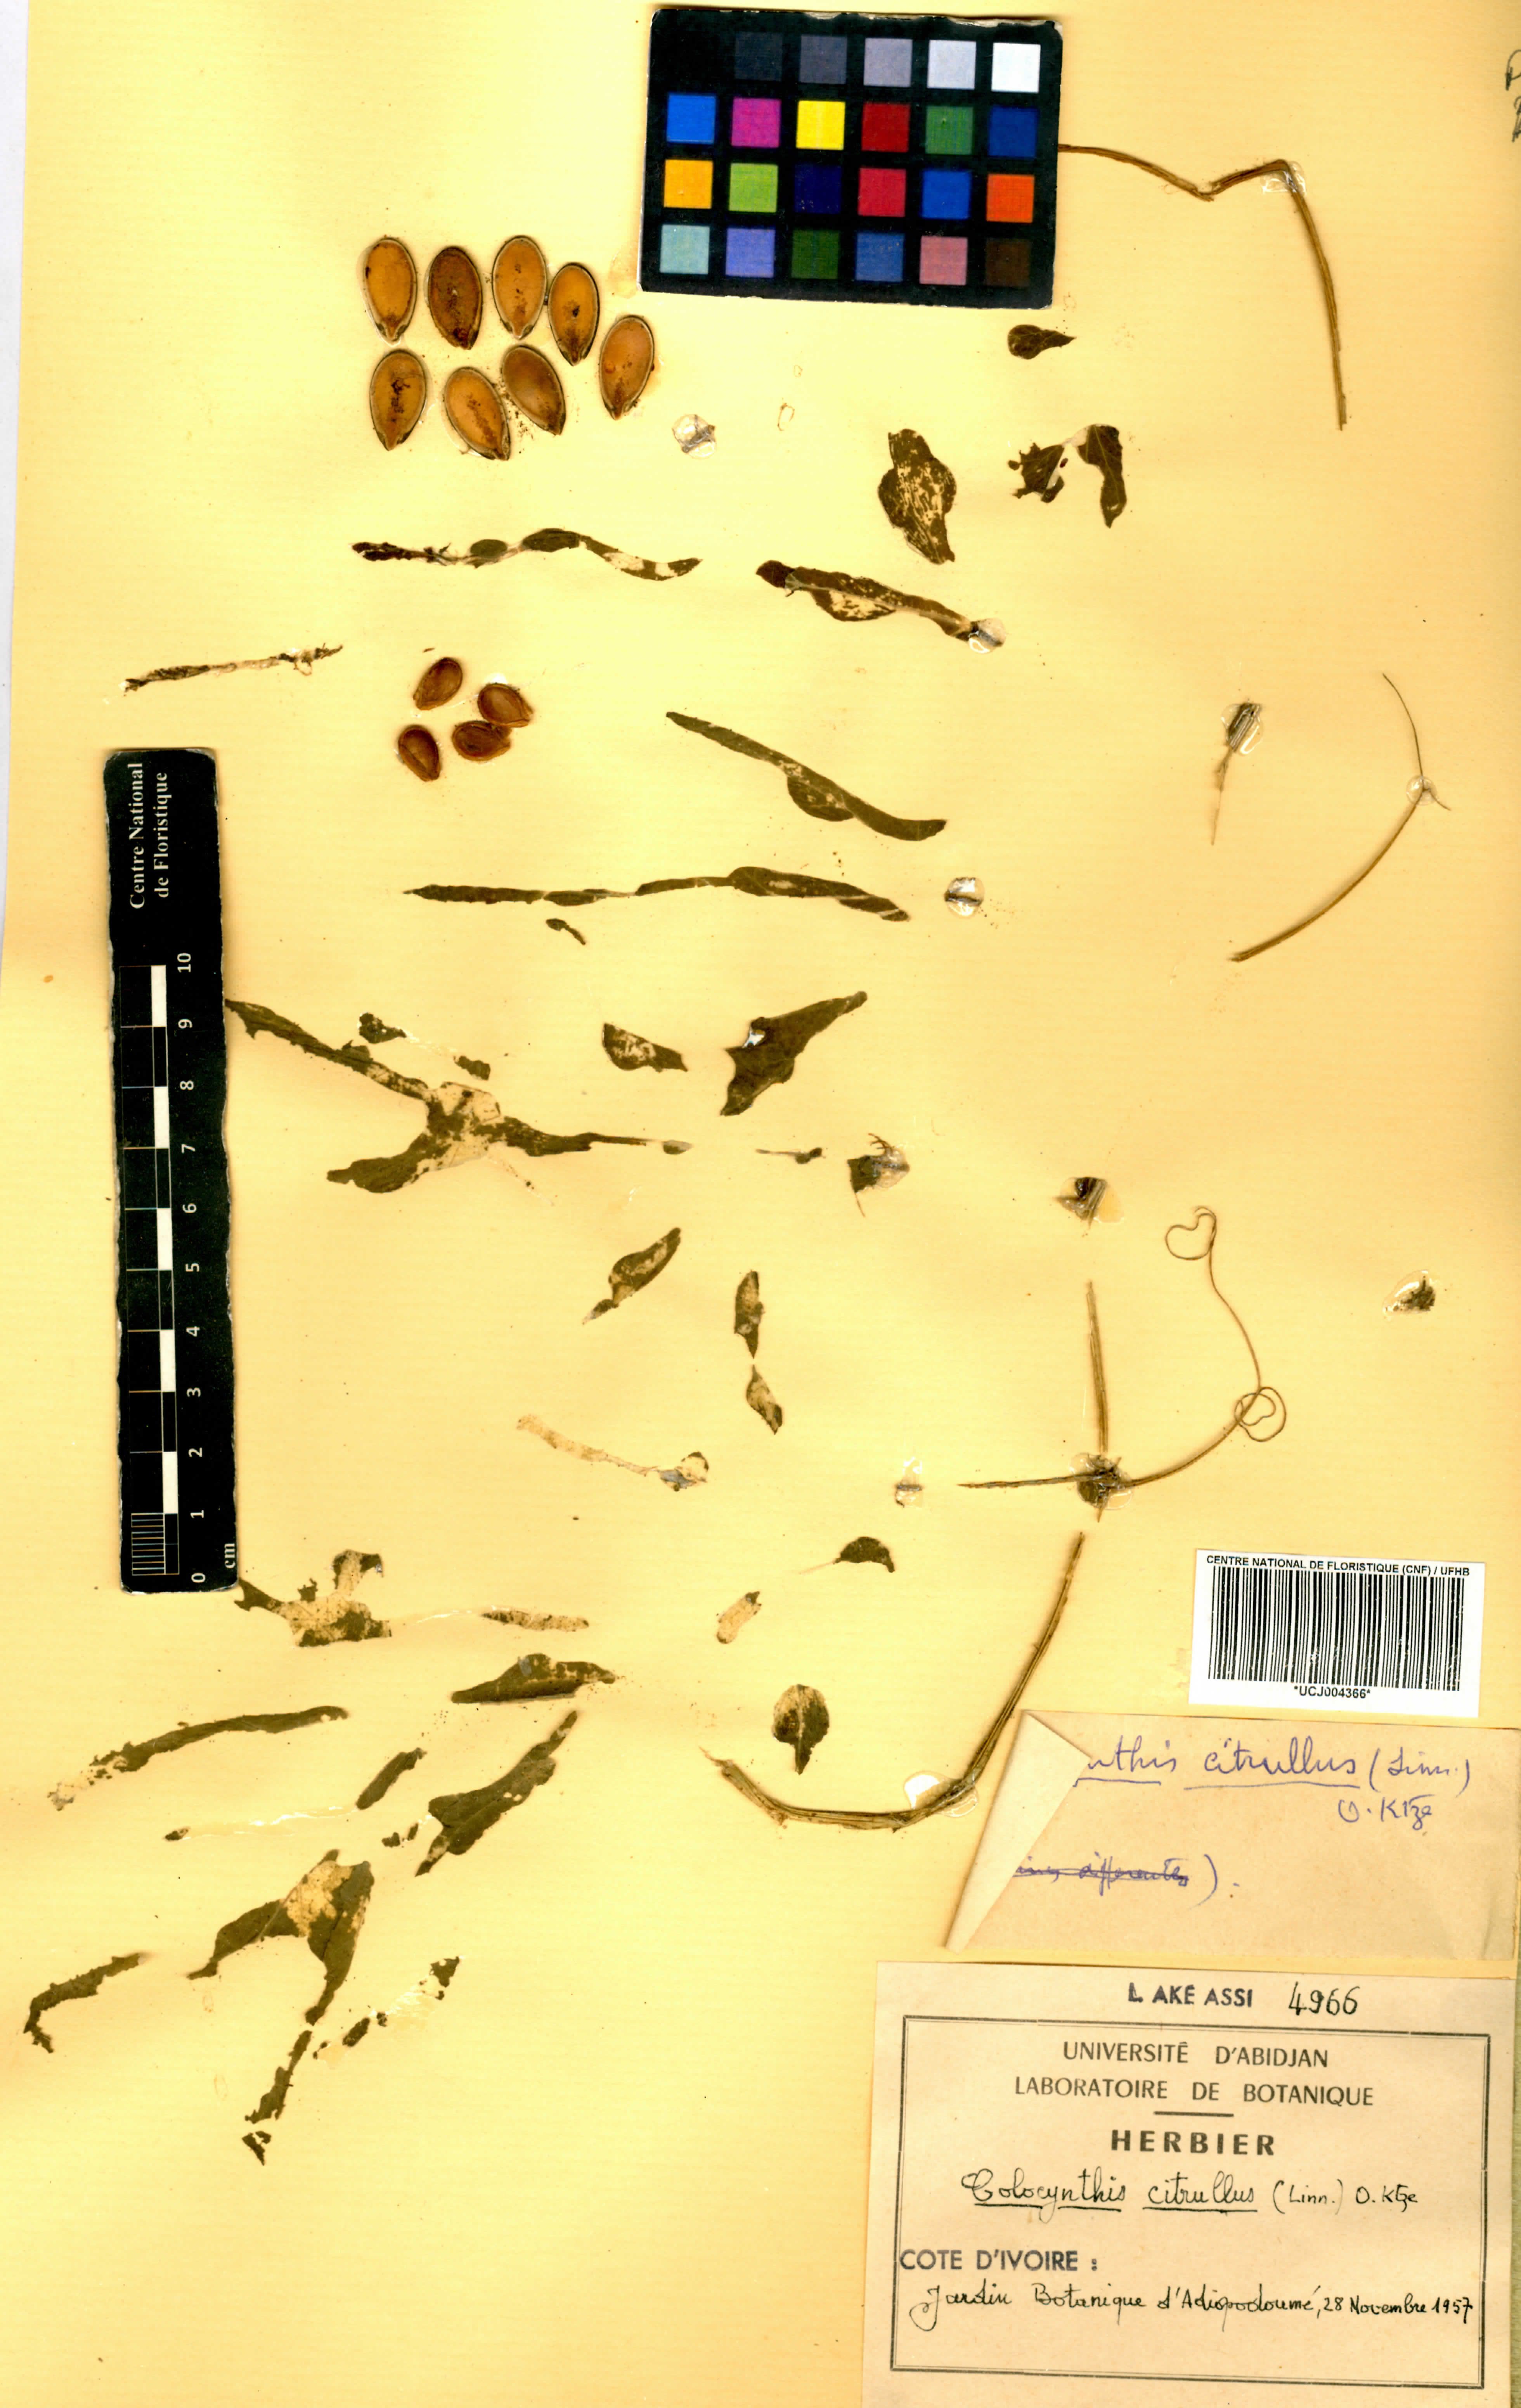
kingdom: Plantae
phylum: Tracheophyta
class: Magnoliopsida
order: Cucurbitales
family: Cucurbitaceae
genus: Citrullus
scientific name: Citrullus lanatus
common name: Watermelon
